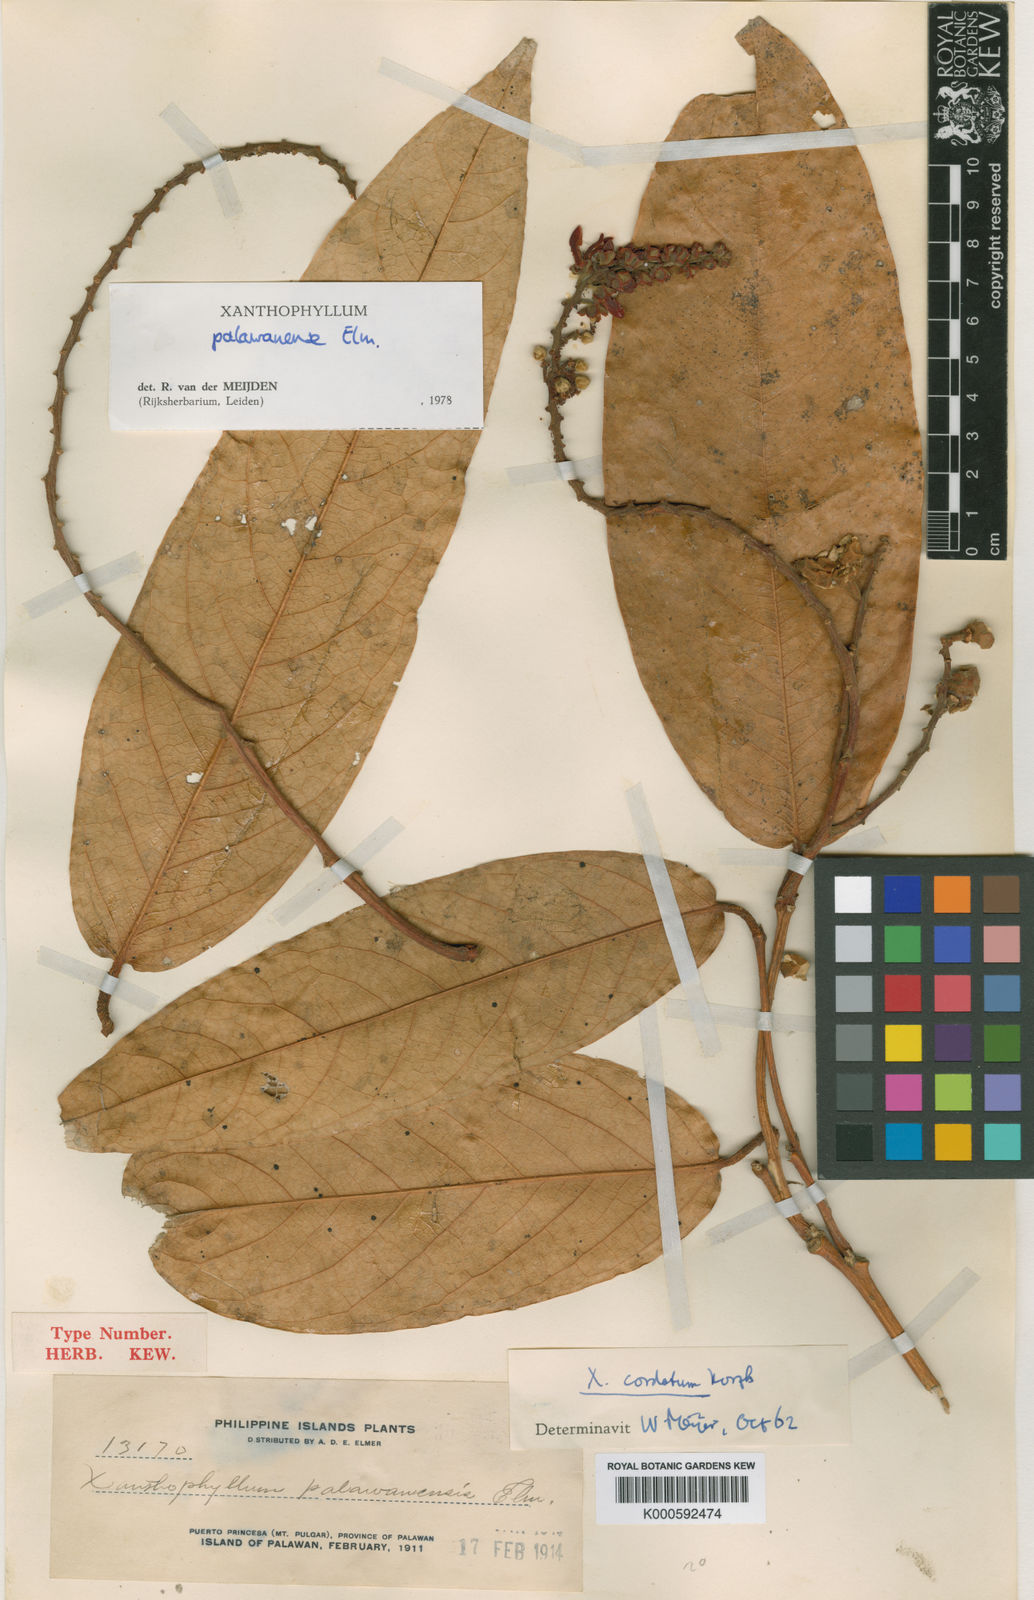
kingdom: Plantae
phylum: Tracheophyta
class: Magnoliopsida
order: Fabales
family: Polygalaceae
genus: Xanthophyllum
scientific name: Xanthophyllum palawanense
